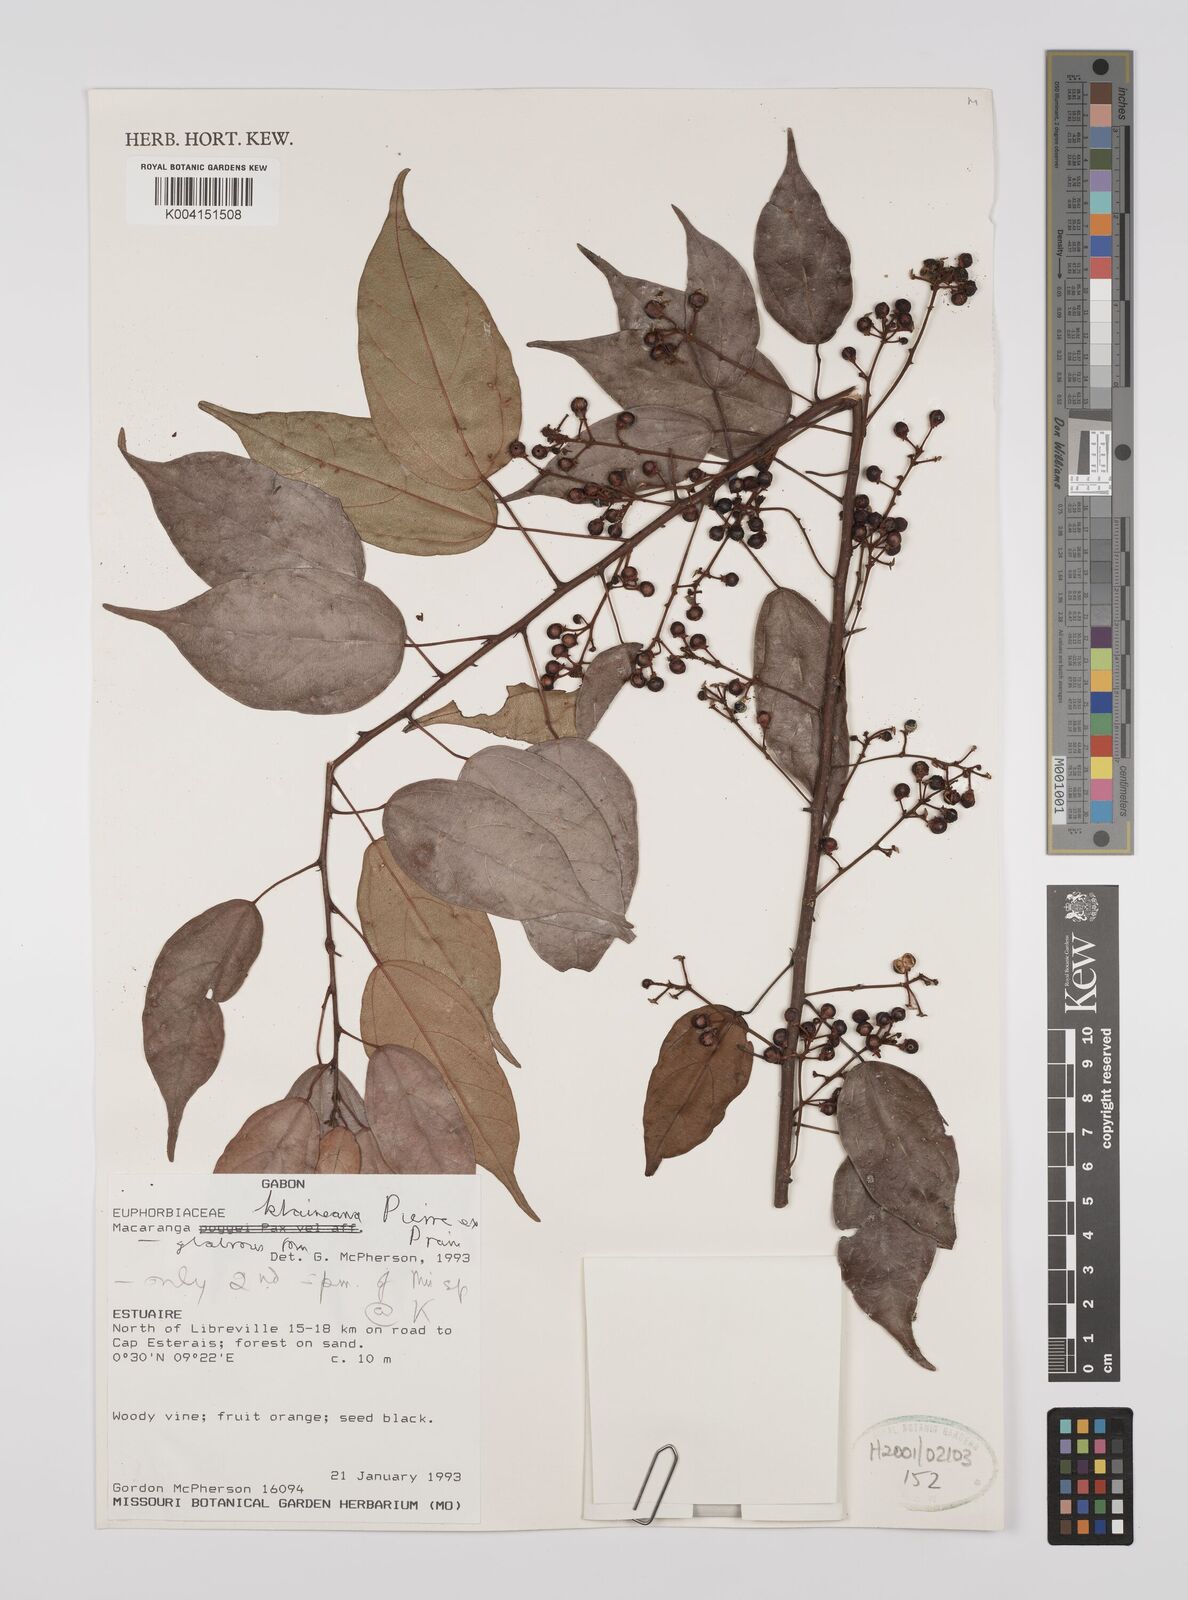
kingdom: Plantae
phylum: Tracheophyta
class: Magnoliopsida
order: Malpighiales
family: Euphorbiaceae
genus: Macaranga
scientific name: Macaranga klaineana
